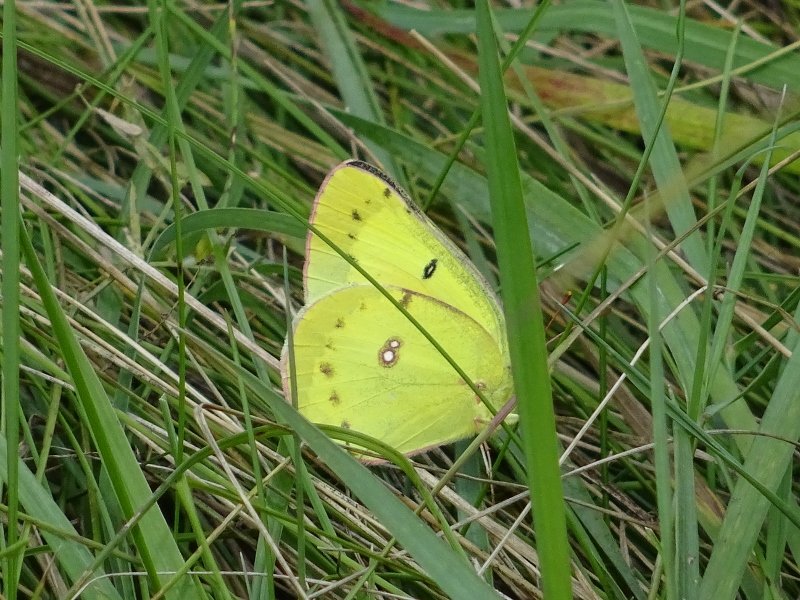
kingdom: Animalia
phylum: Arthropoda
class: Insecta
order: Lepidoptera
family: Pieridae
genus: Colias
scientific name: Colias philodice
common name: Clouded Sulphur
